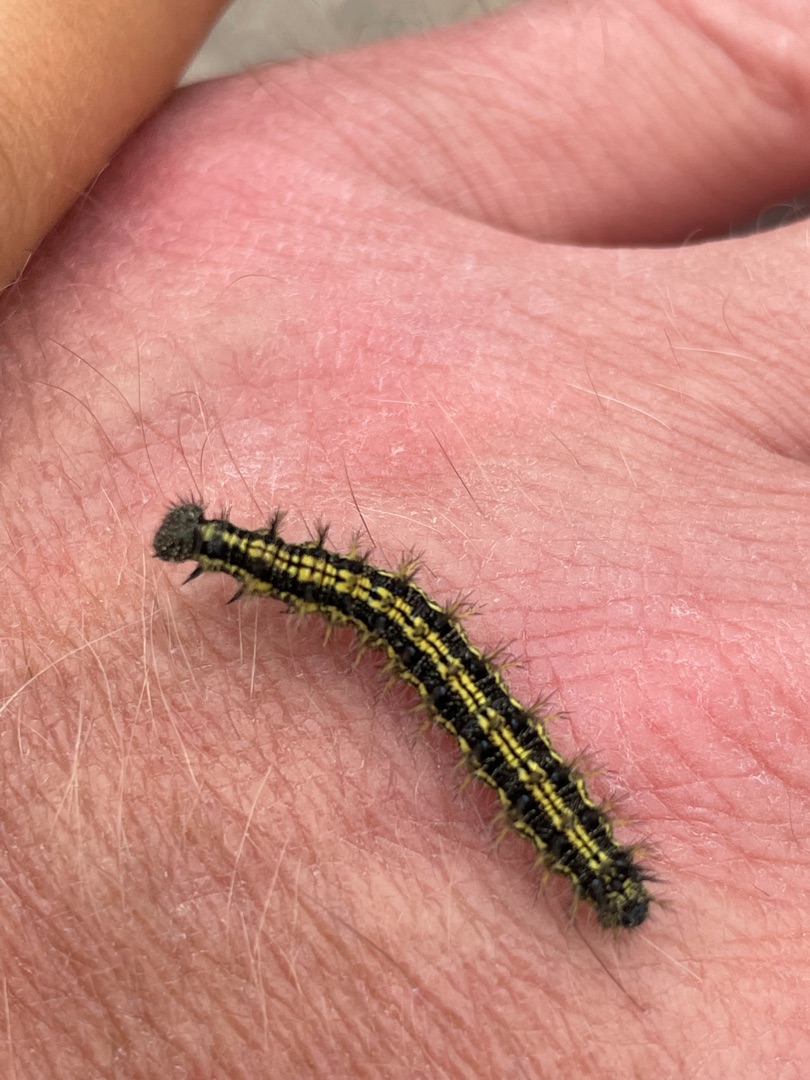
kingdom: Animalia
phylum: Arthropoda
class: Insecta
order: Lepidoptera
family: Nymphalidae
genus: Aglais
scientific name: Aglais urticae
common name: Nældens takvinge
